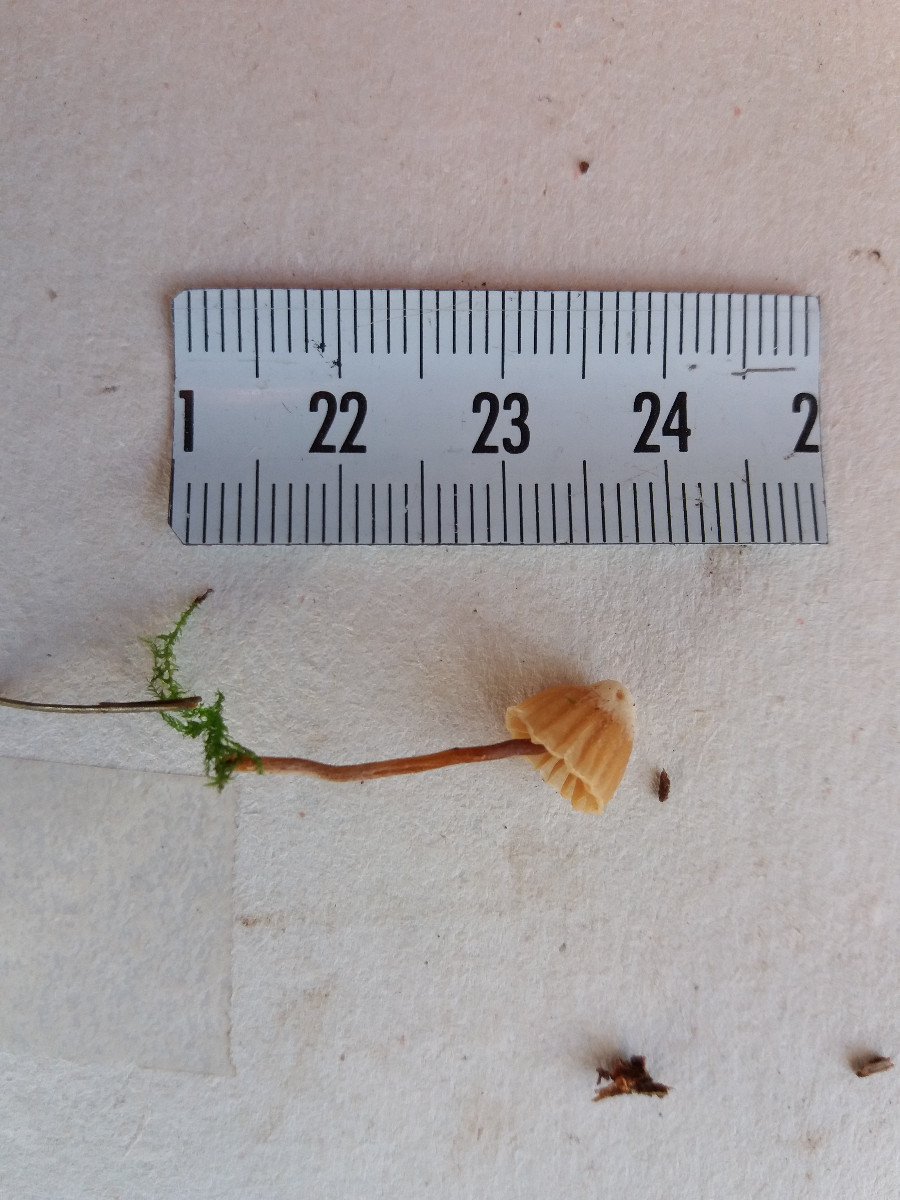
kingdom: Fungi
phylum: Basidiomycota
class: Agaricomycetes
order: Agaricales
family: Hymenogastraceae
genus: Galerina
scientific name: Galerina vittiformis
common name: Hairy leg bell
